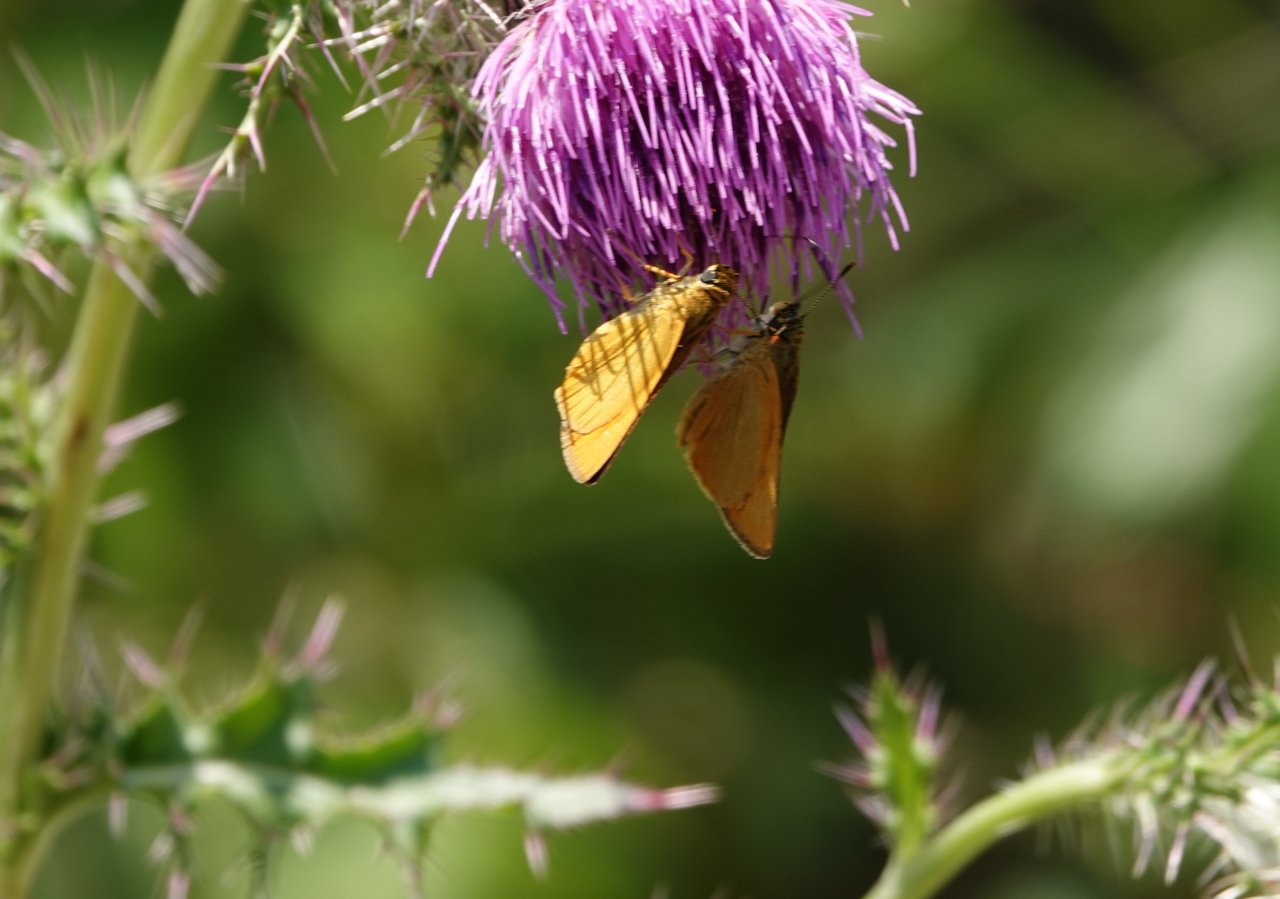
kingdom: Animalia
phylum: Arthropoda
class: Insecta
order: Lepidoptera
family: Hesperiidae
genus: Atrytone
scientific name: Atrytone delaware
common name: Delaware Skipper
